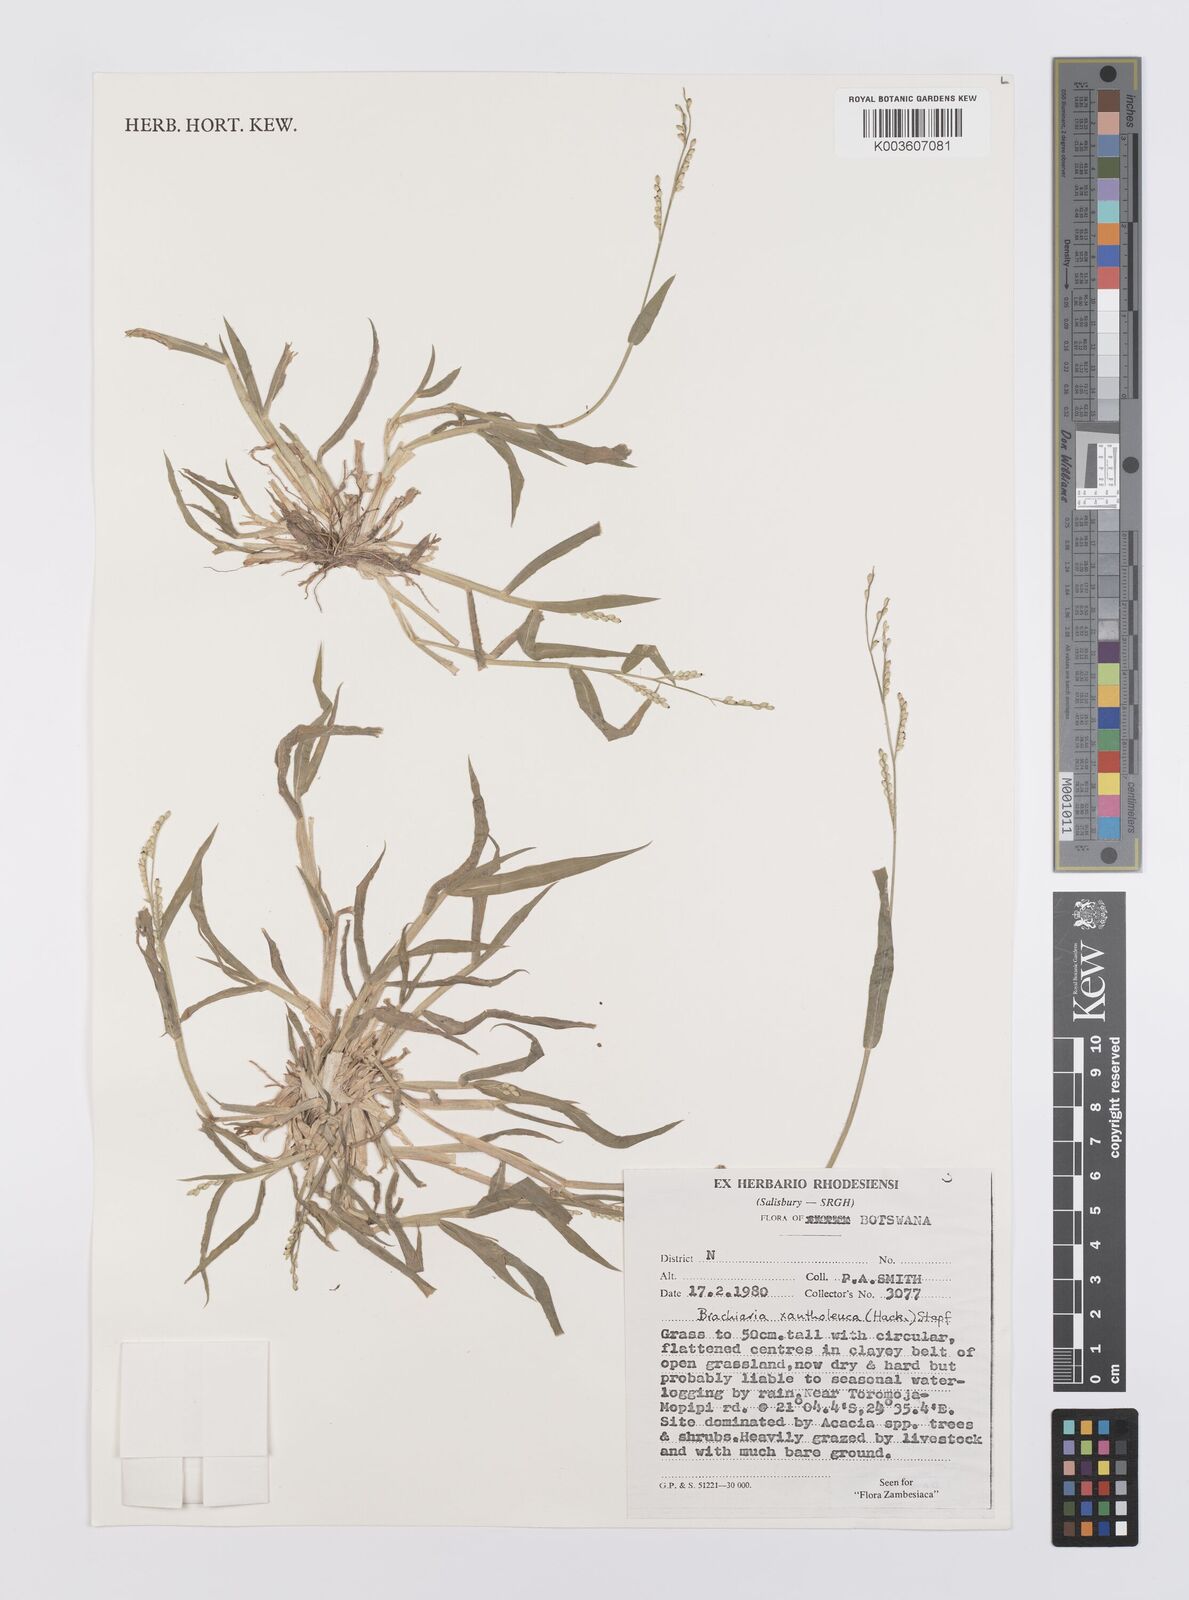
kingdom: Plantae
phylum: Tracheophyta
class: Liliopsida
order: Poales
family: Poaceae
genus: Urochloa
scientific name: Urochloa xantholeuca
